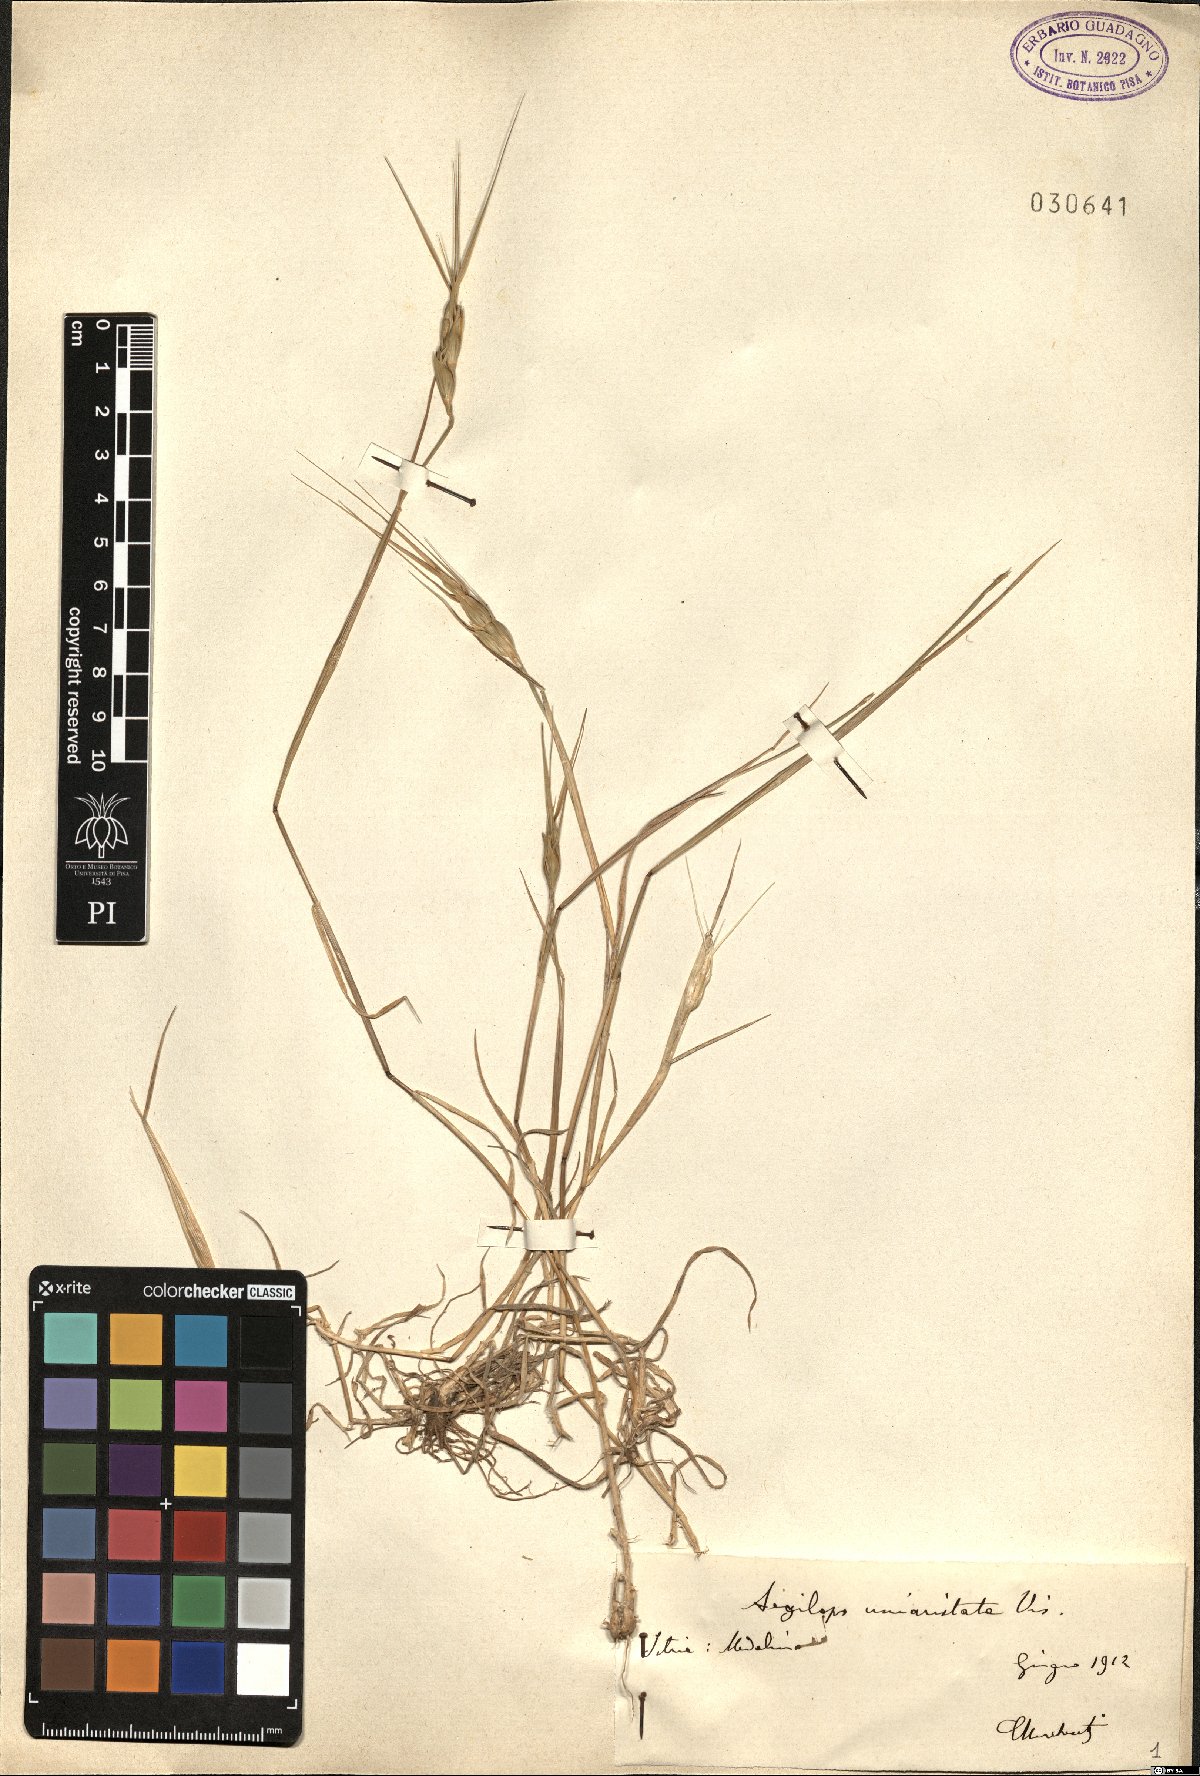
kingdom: Plantae
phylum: Tracheophyta
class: Liliopsida
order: Poales
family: Poaceae
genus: Aegilops
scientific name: Aegilops uniaristata
